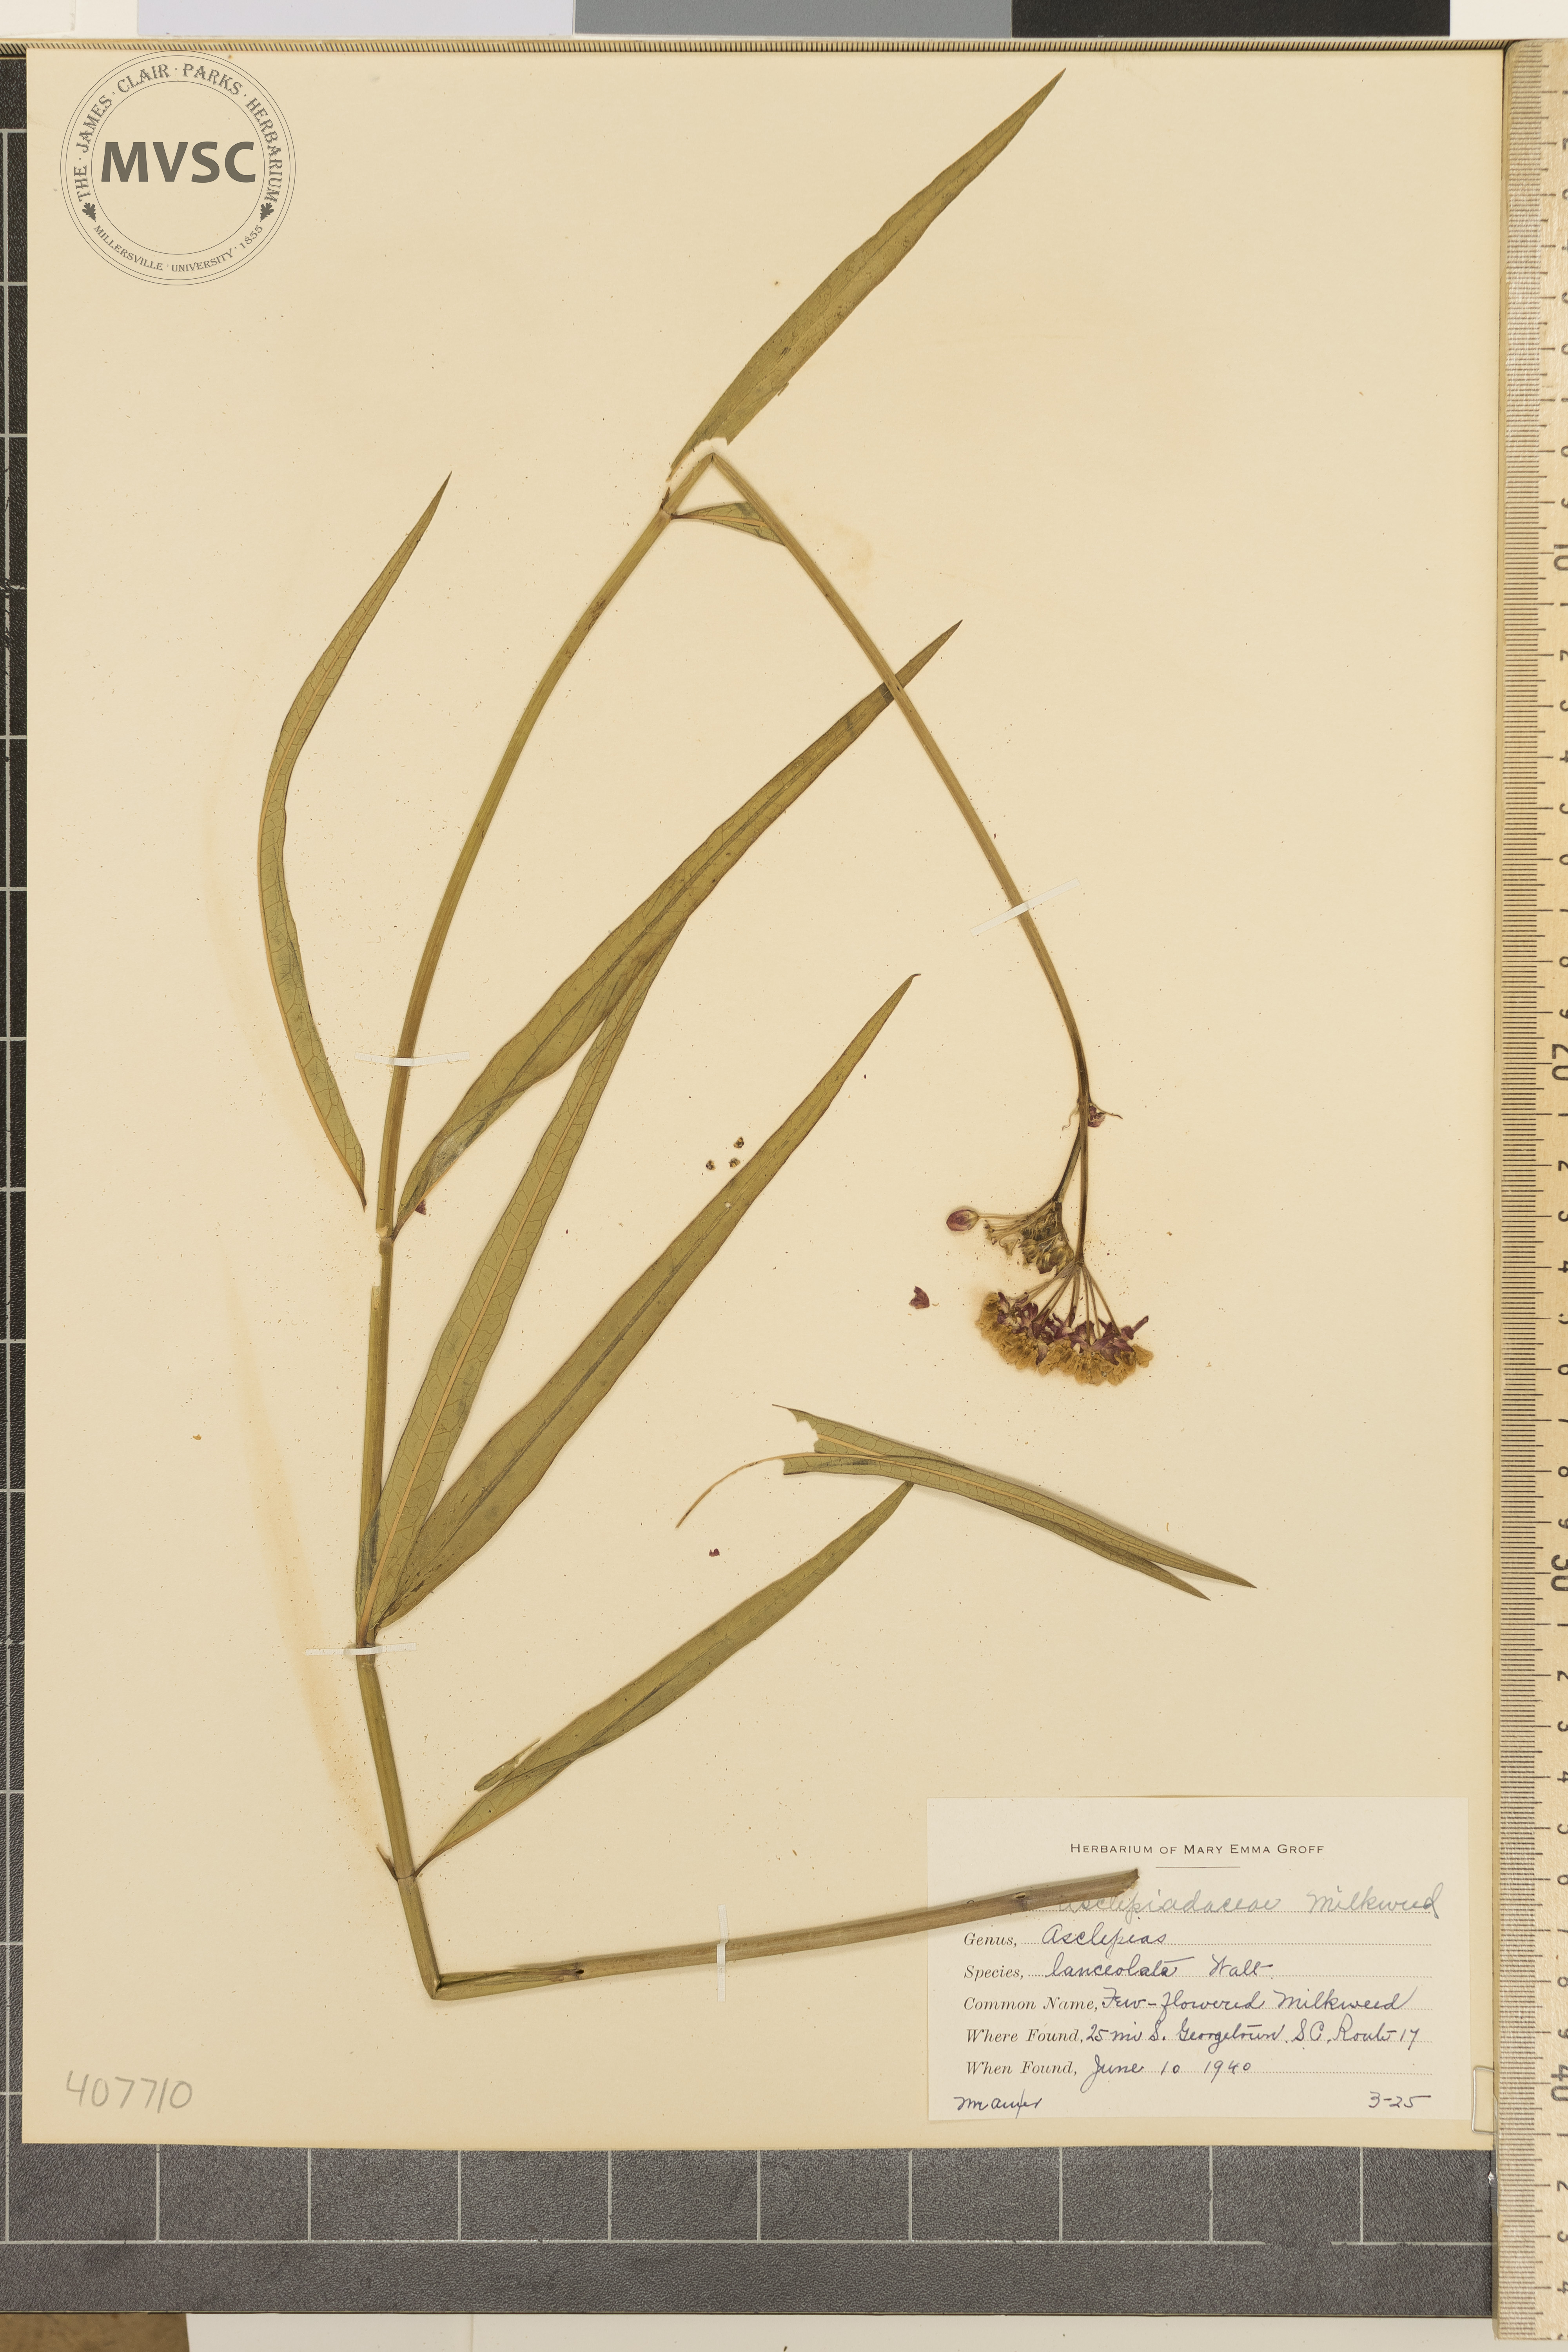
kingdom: Plantae
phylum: Tracheophyta
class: Magnoliopsida
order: Gentianales
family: Apocynaceae
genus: Asclepias
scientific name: Asclepias lanceolata
